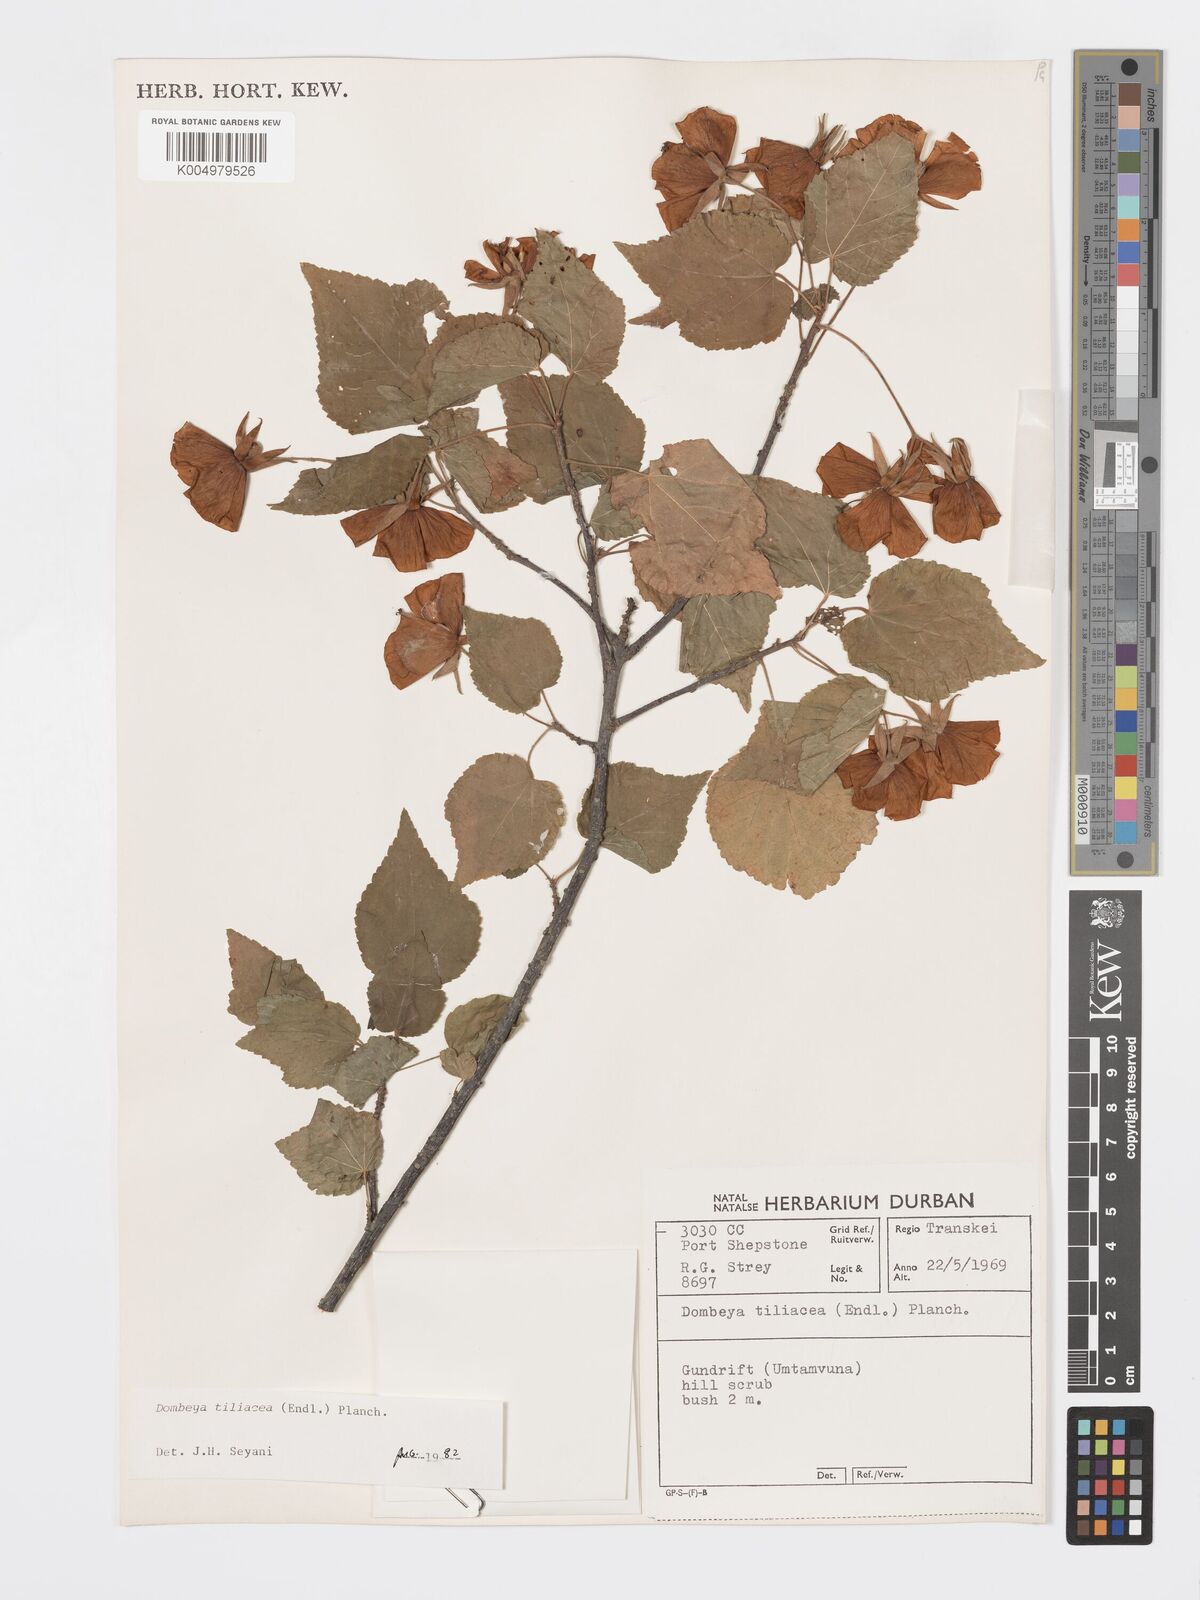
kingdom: Plantae
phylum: Tracheophyta
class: Magnoliopsida
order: Malvales
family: Malvaceae
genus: Dombeya
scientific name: Dombeya tiliacea
